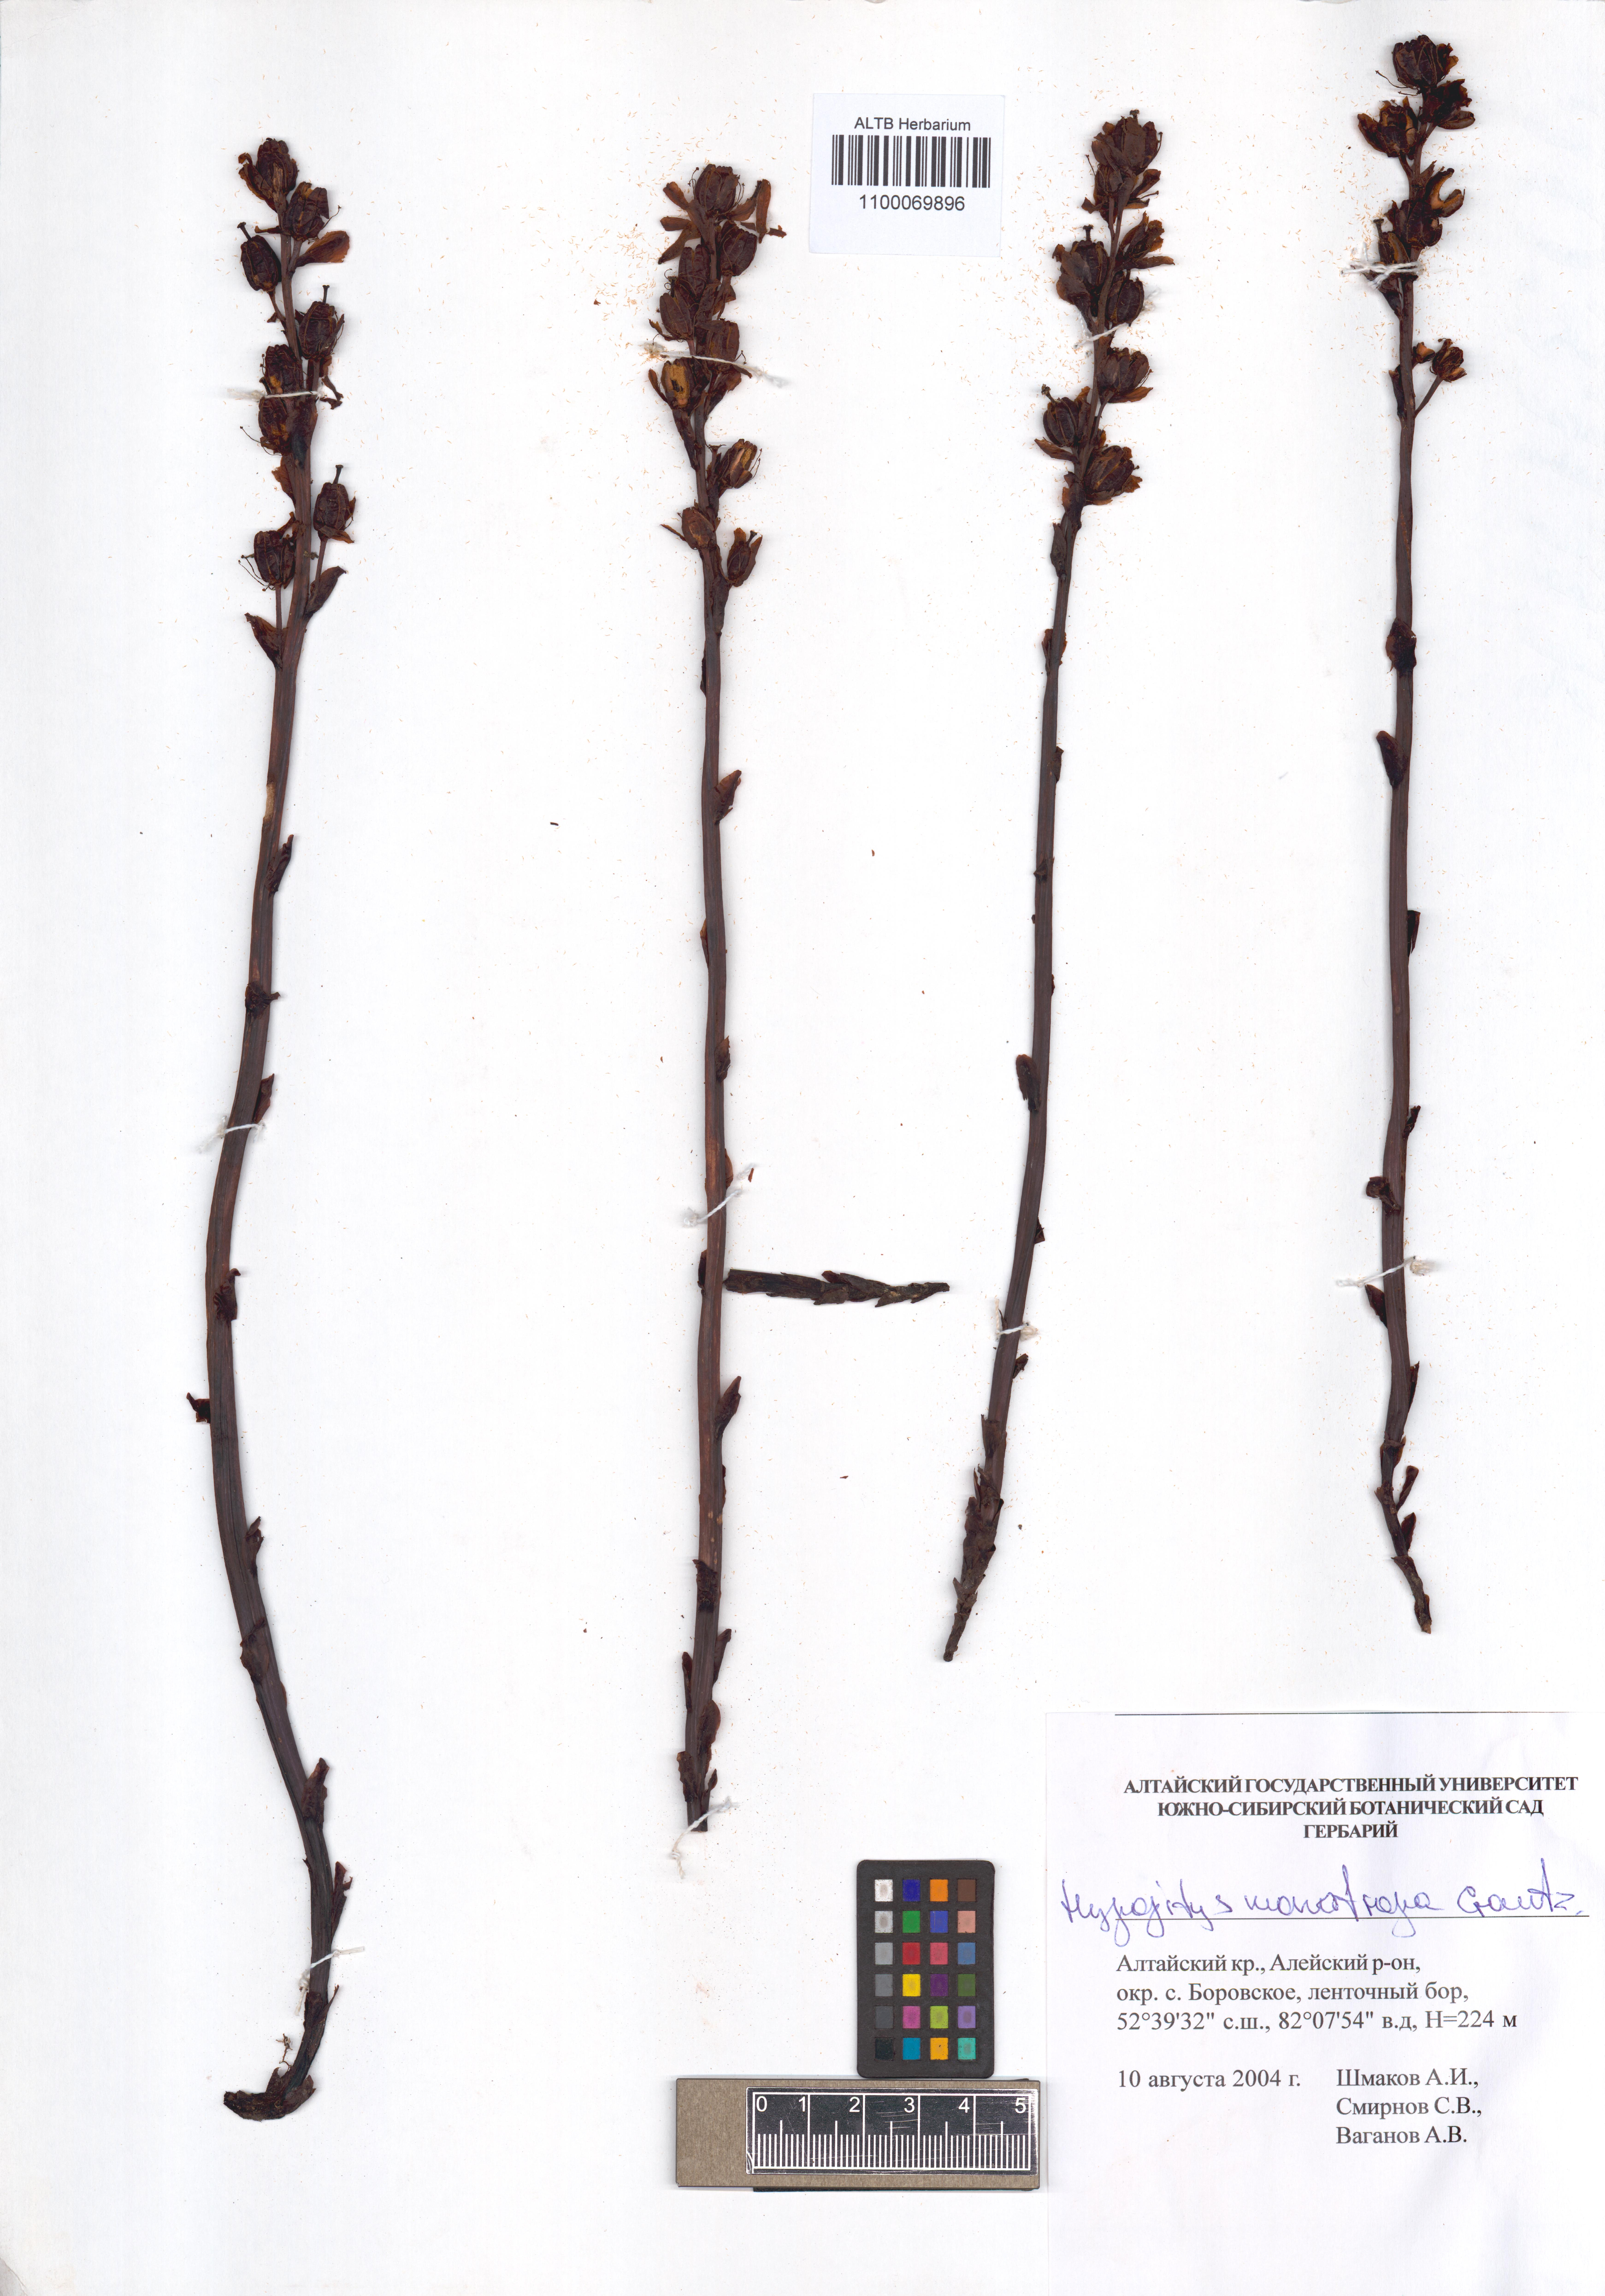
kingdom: Plantae
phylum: Tracheophyta
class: Magnoliopsida
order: Ericales
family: Ericaceae
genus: Hypopitys
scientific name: Hypopitys monotropa
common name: Yellow bird's-nest
